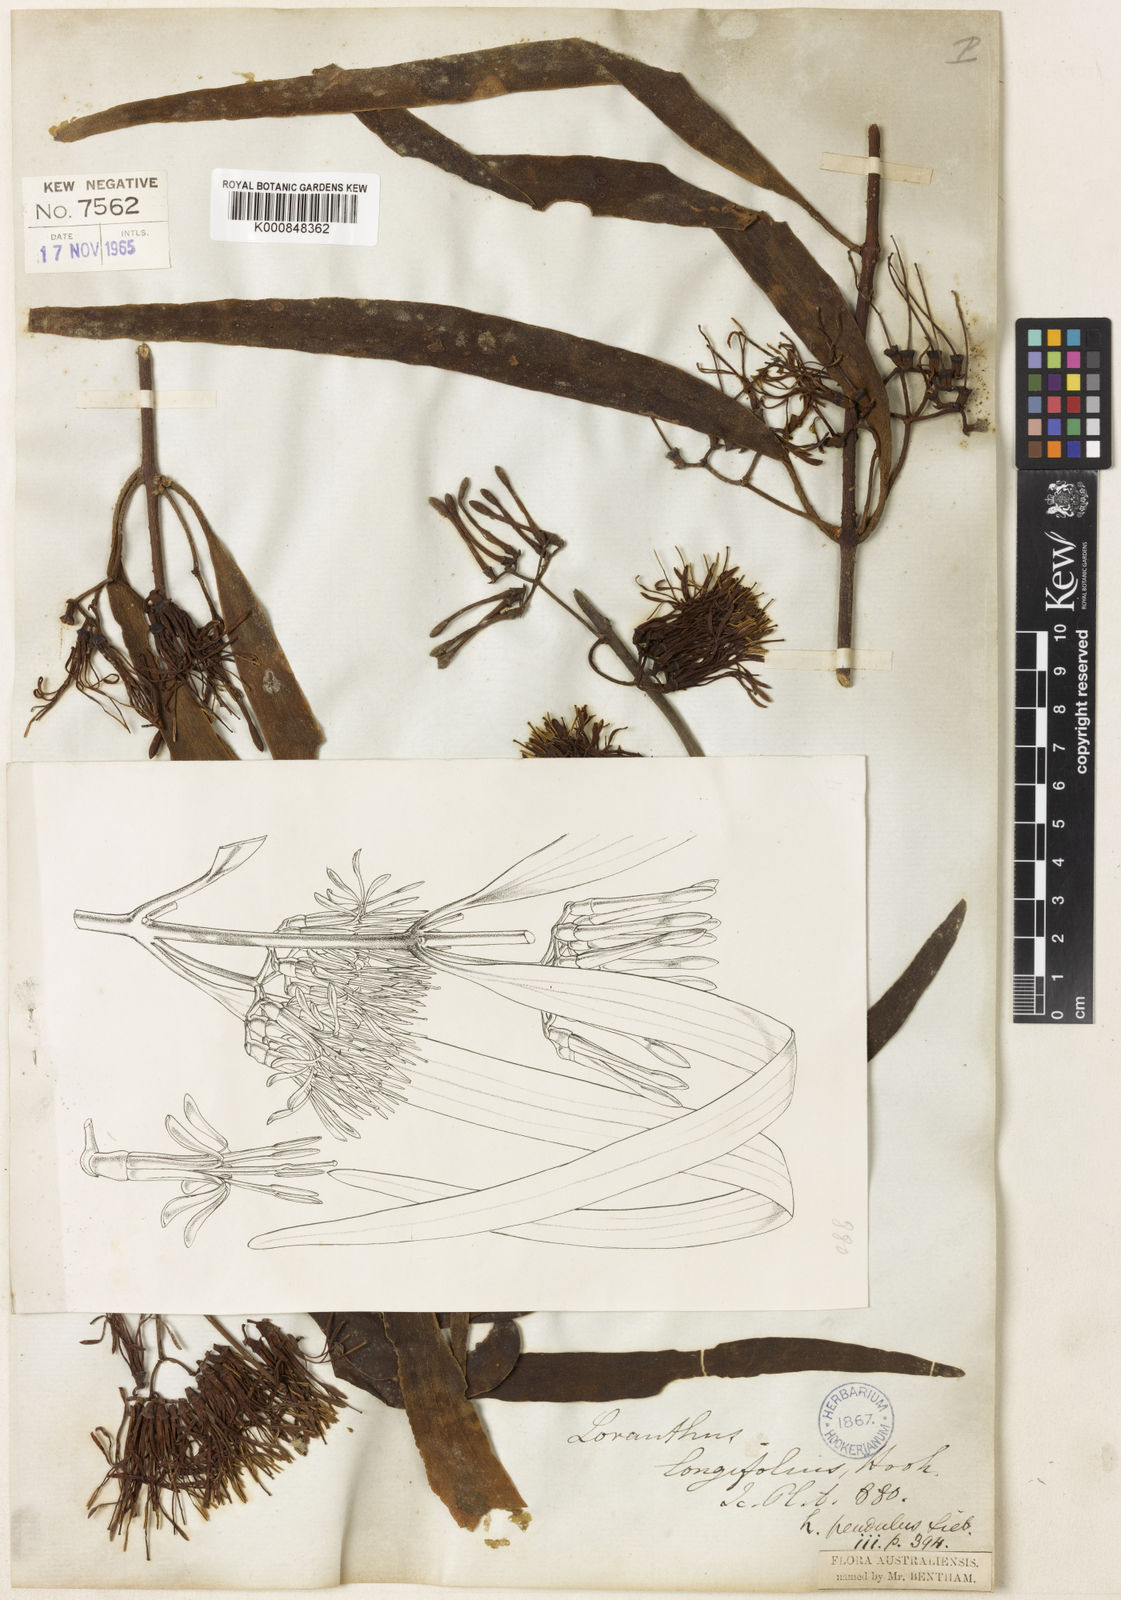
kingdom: Plantae
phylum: Tracheophyta
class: Magnoliopsida
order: Santalales
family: Loranthaceae
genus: Amyema
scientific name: Amyema pendula
